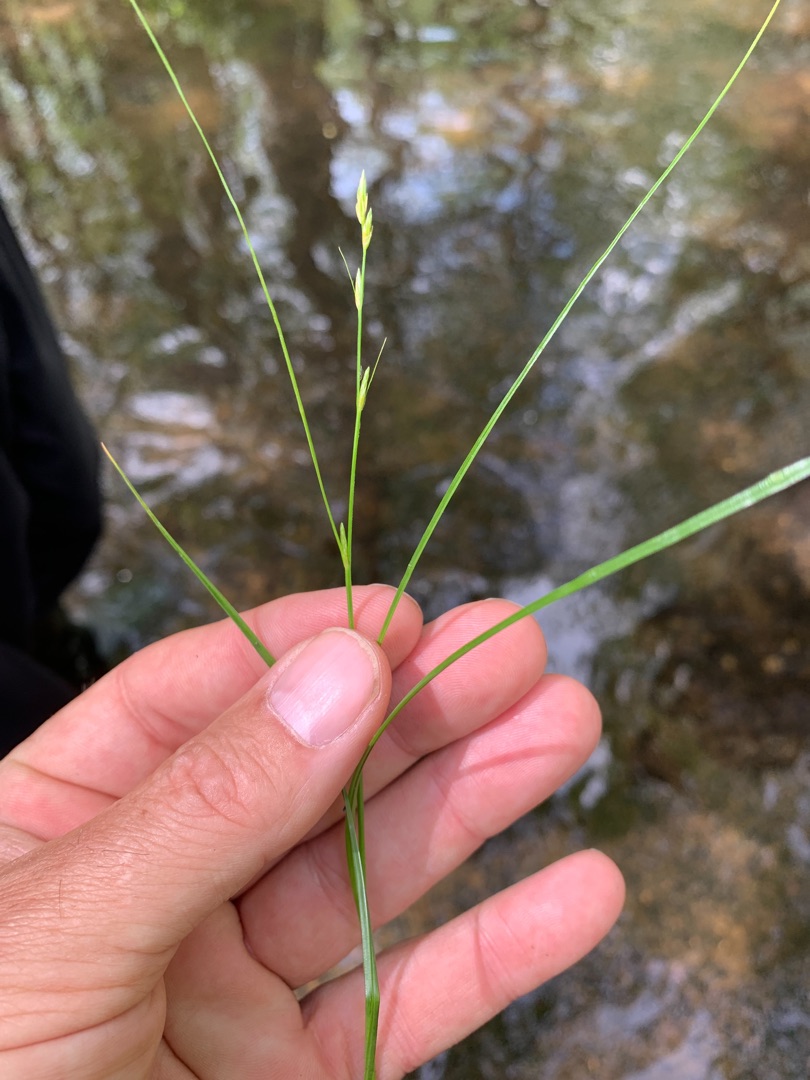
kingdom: Plantae
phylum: Tracheophyta
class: Liliopsida
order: Poales
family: Cyperaceae
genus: Carex
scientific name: Carex remota
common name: Akselblomstret star
